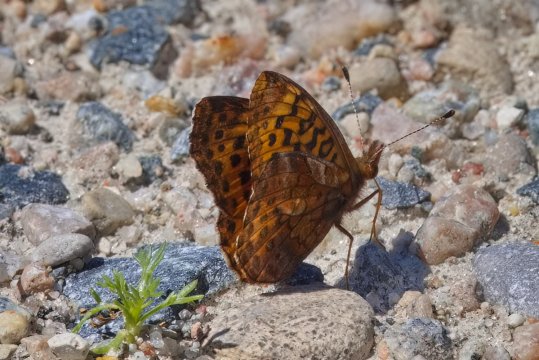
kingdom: Animalia
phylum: Arthropoda
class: Insecta
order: Lepidoptera
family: Nymphalidae
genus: Clossiana
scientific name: Clossiana toddi
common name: Meadow Fritillary
